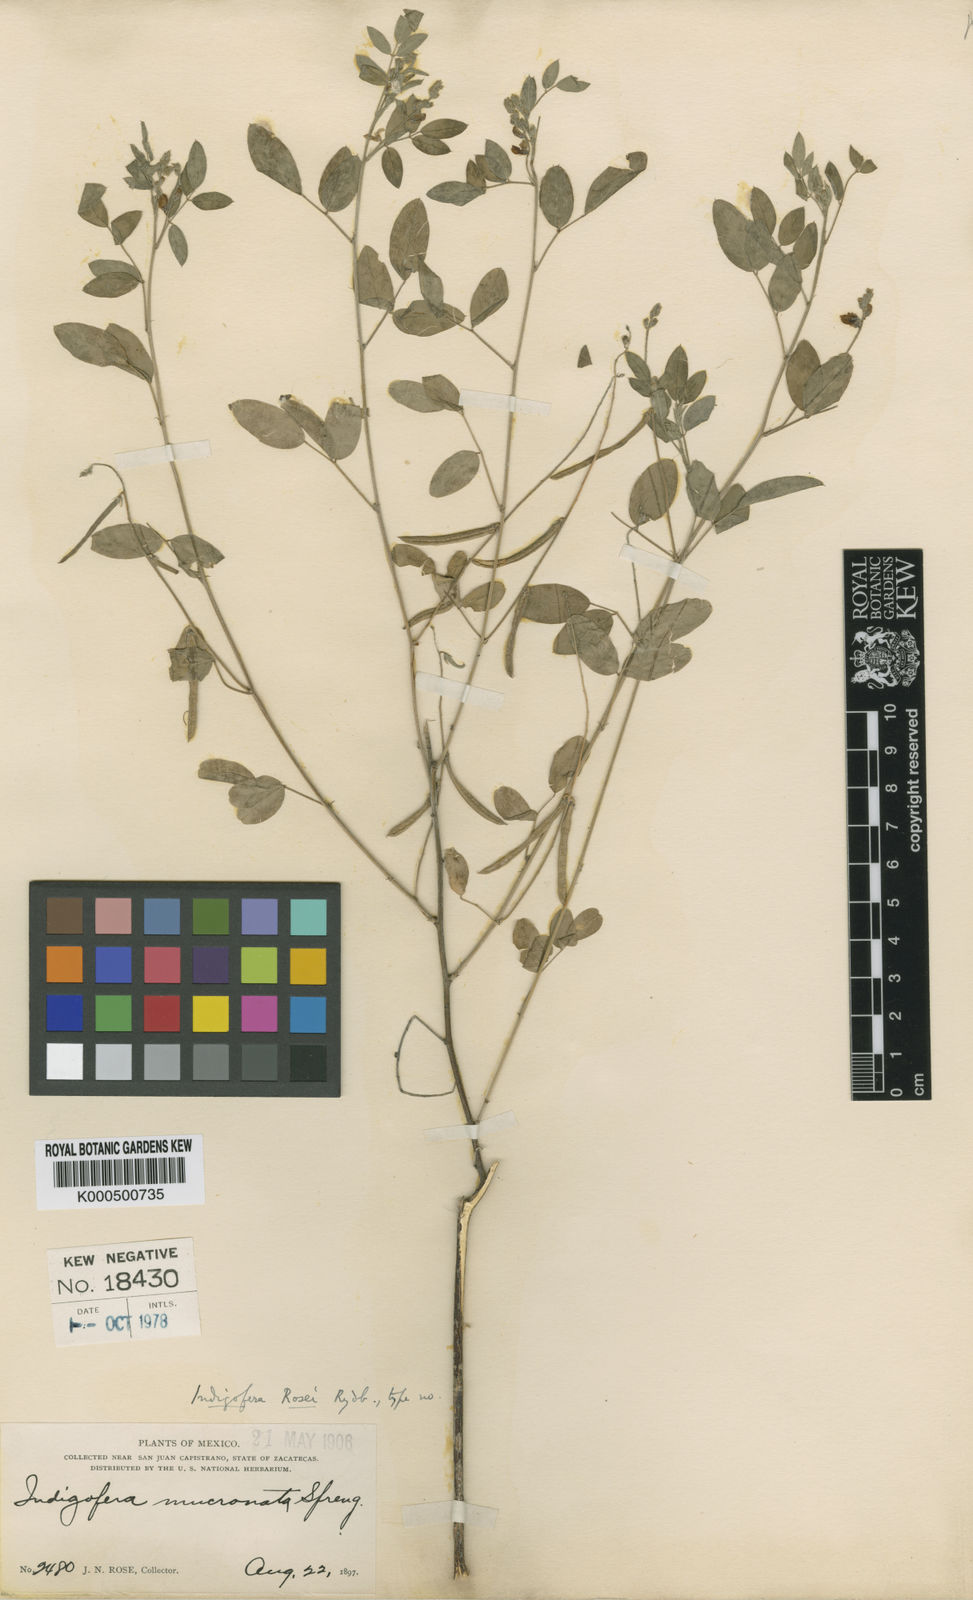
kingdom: Plantae
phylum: Tracheophyta
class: Magnoliopsida
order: Fabales
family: Fabaceae
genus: Indigofera
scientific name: Indigofera subulata
